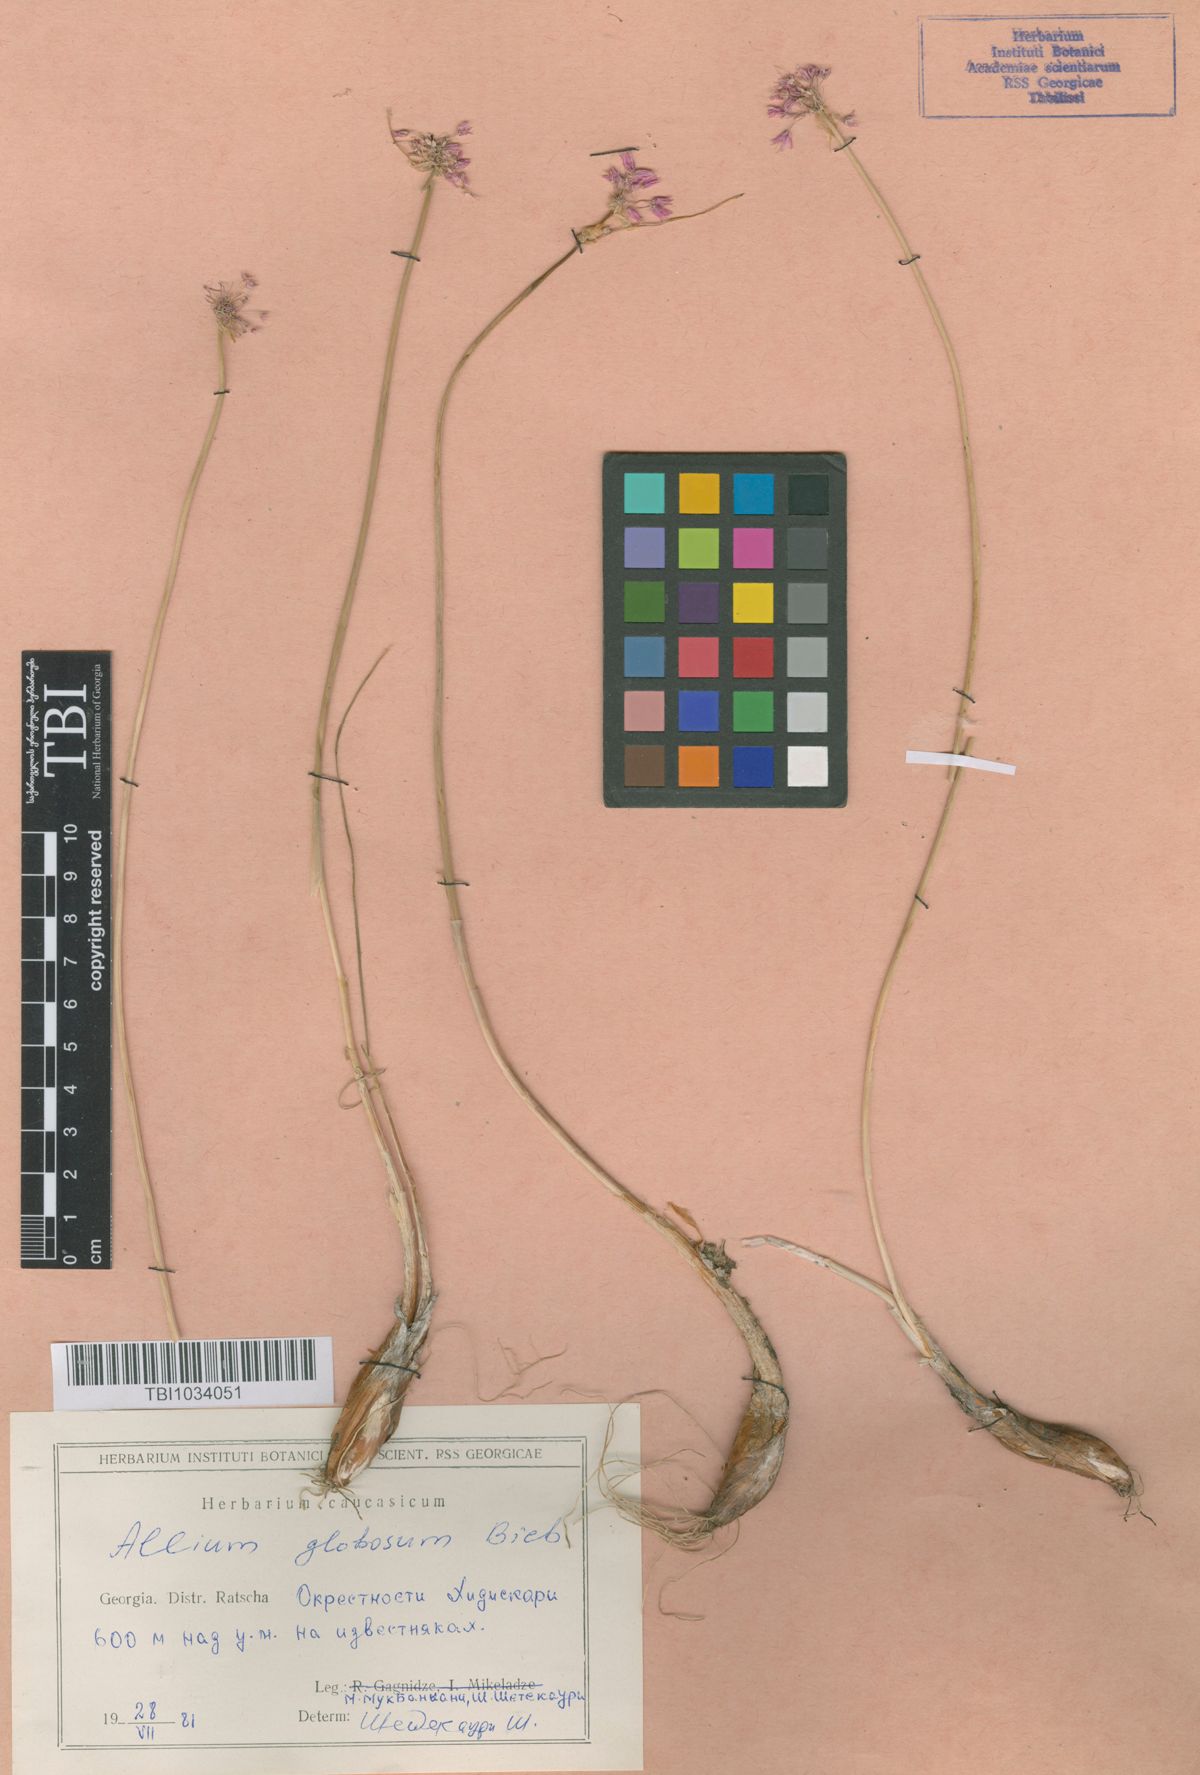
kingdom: Plantae
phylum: Tracheophyta
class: Liliopsida
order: Asparagales
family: Amaryllidaceae
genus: Allium
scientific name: Allium saxatile
